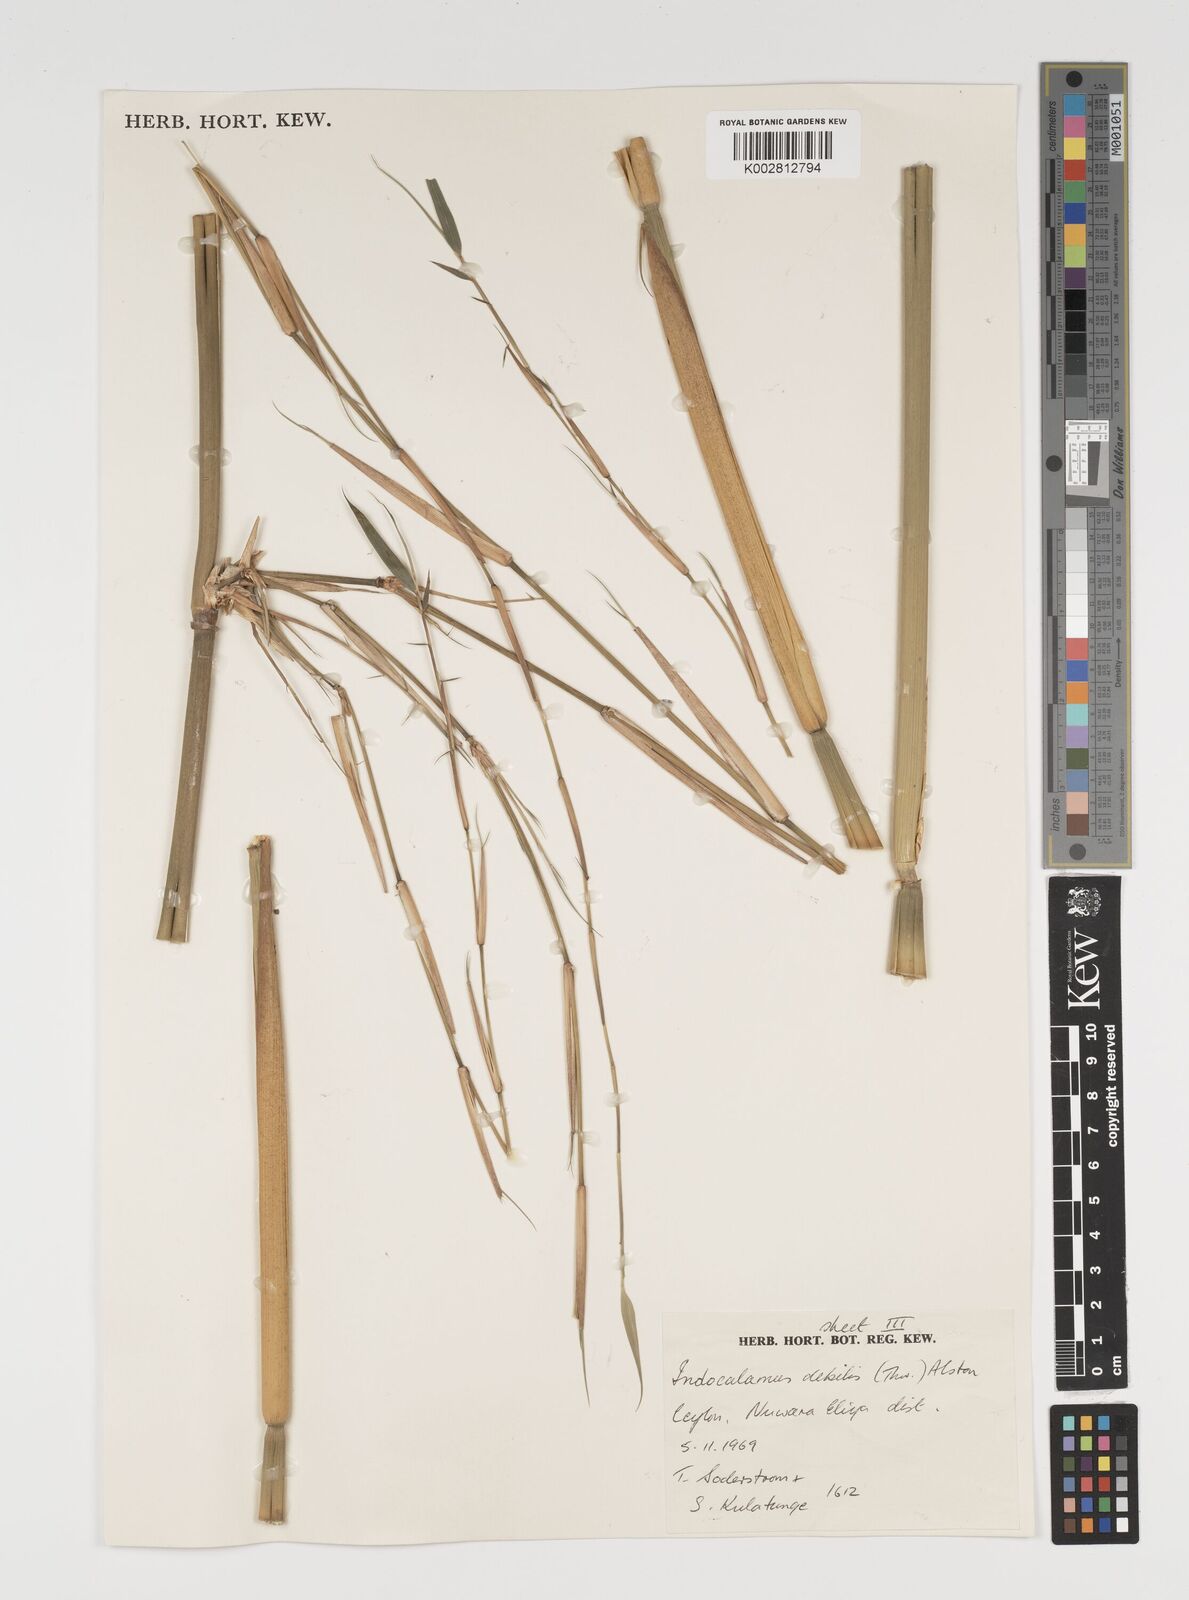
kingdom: Plantae
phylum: Tracheophyta
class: Liliopsida
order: Poales
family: Poaceae
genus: Kuruna
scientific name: Kuruna debilis
